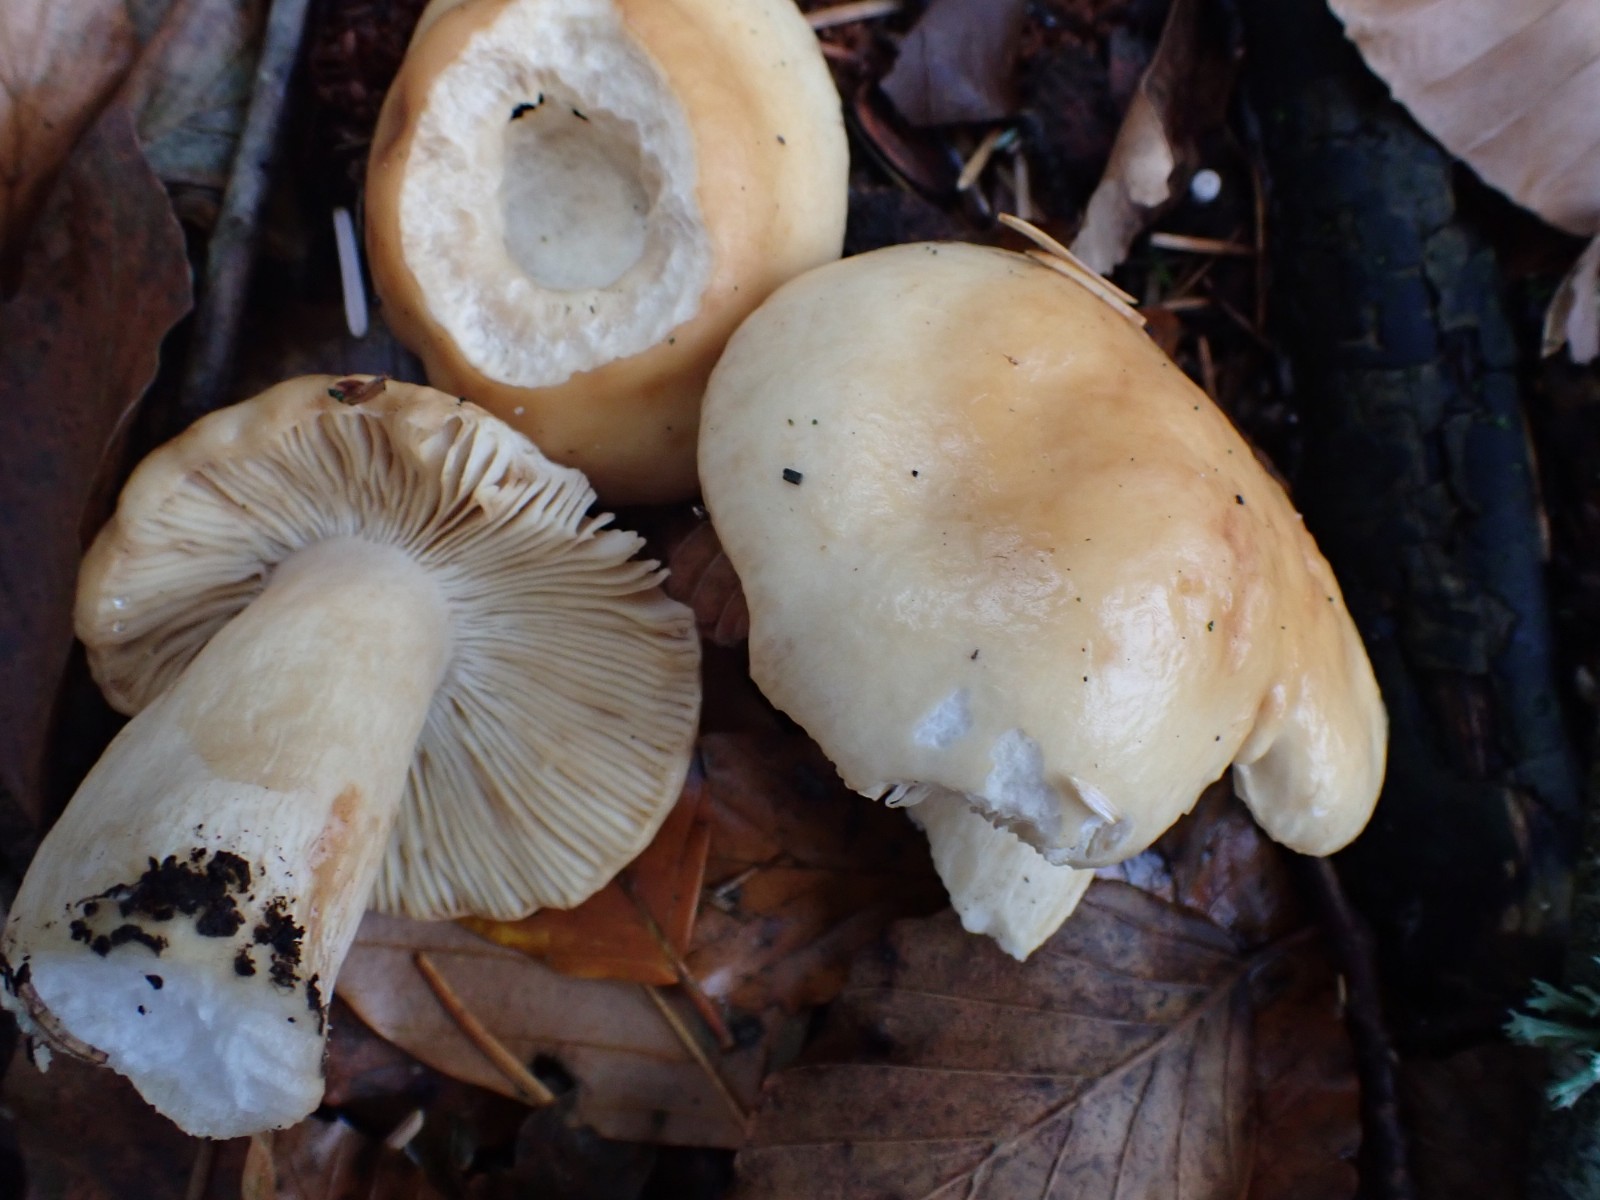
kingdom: Fungi
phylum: Basidiomycota
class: Agaricomycetes
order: Russulales
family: Russulaceae
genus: Russula
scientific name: Russula fellea
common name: galde-skørhat
